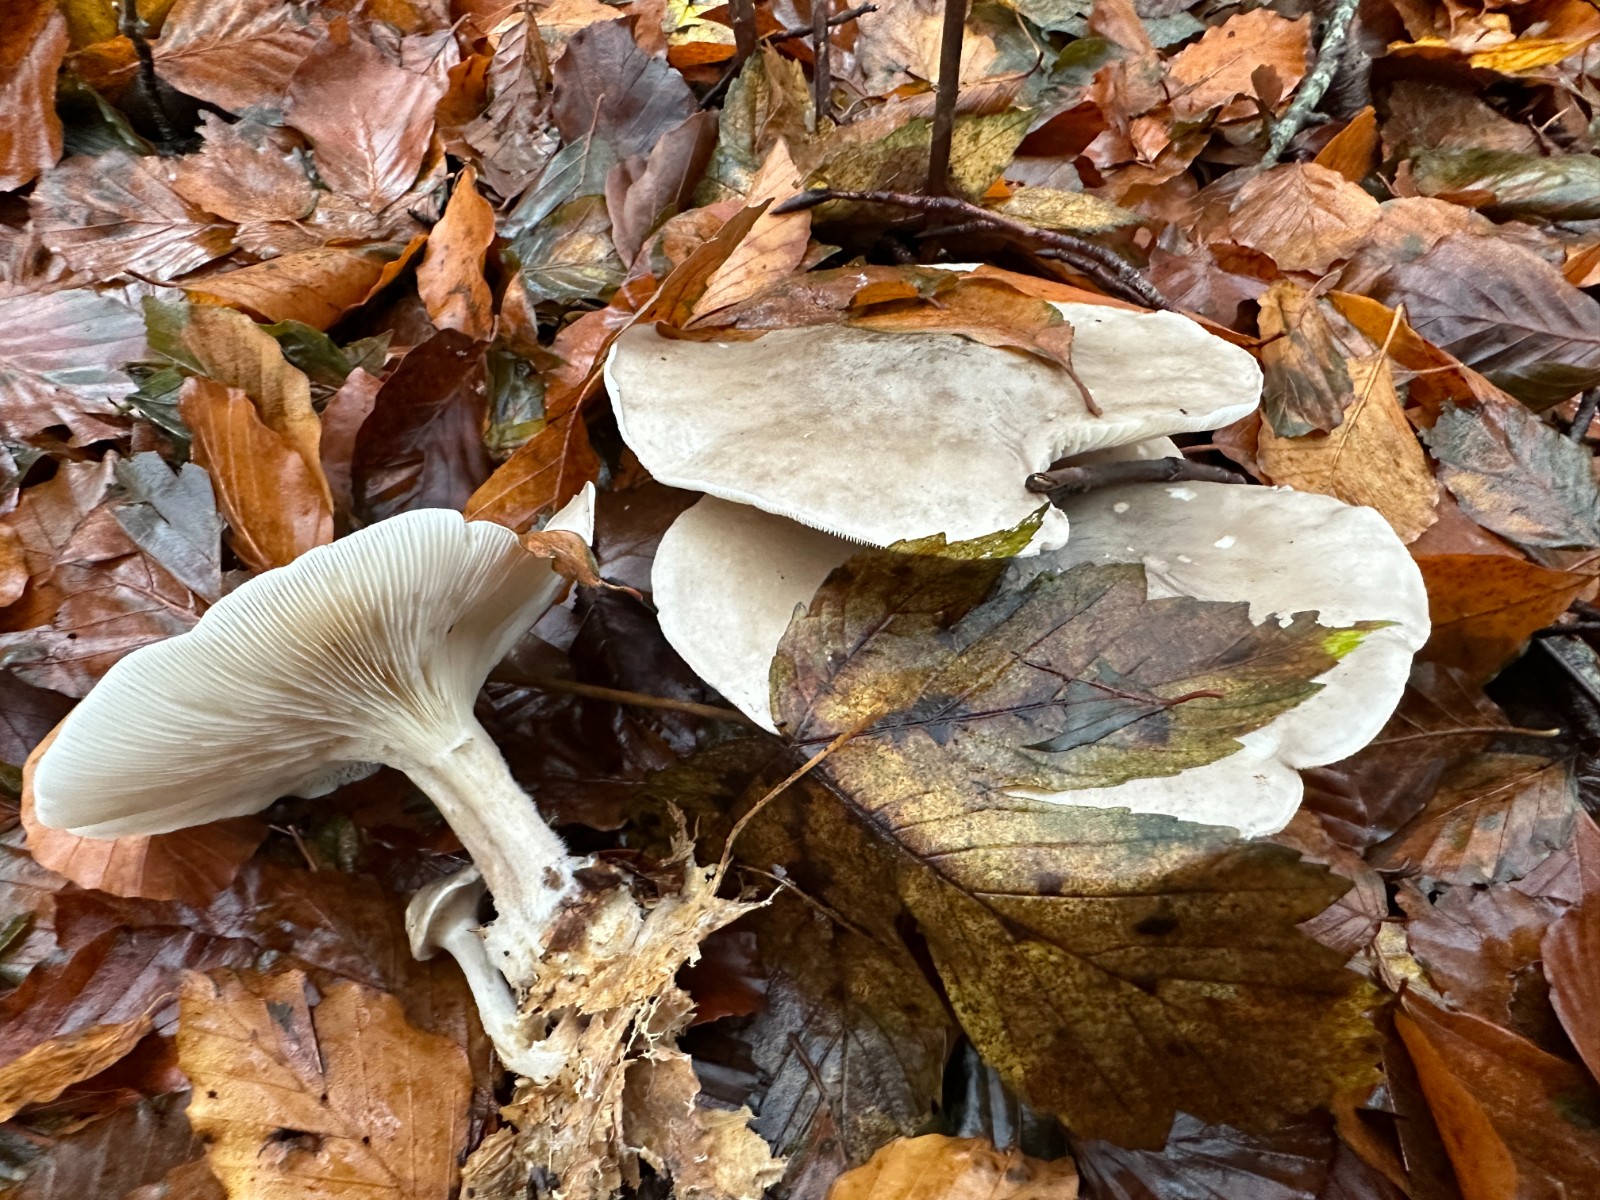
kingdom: Fungi
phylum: Basidiomycota
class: Agaricomycetes
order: Agaricales
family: Tricholomataceae
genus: Clitocybe
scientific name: Clitocybe nebularis
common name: tåge-tragthat
